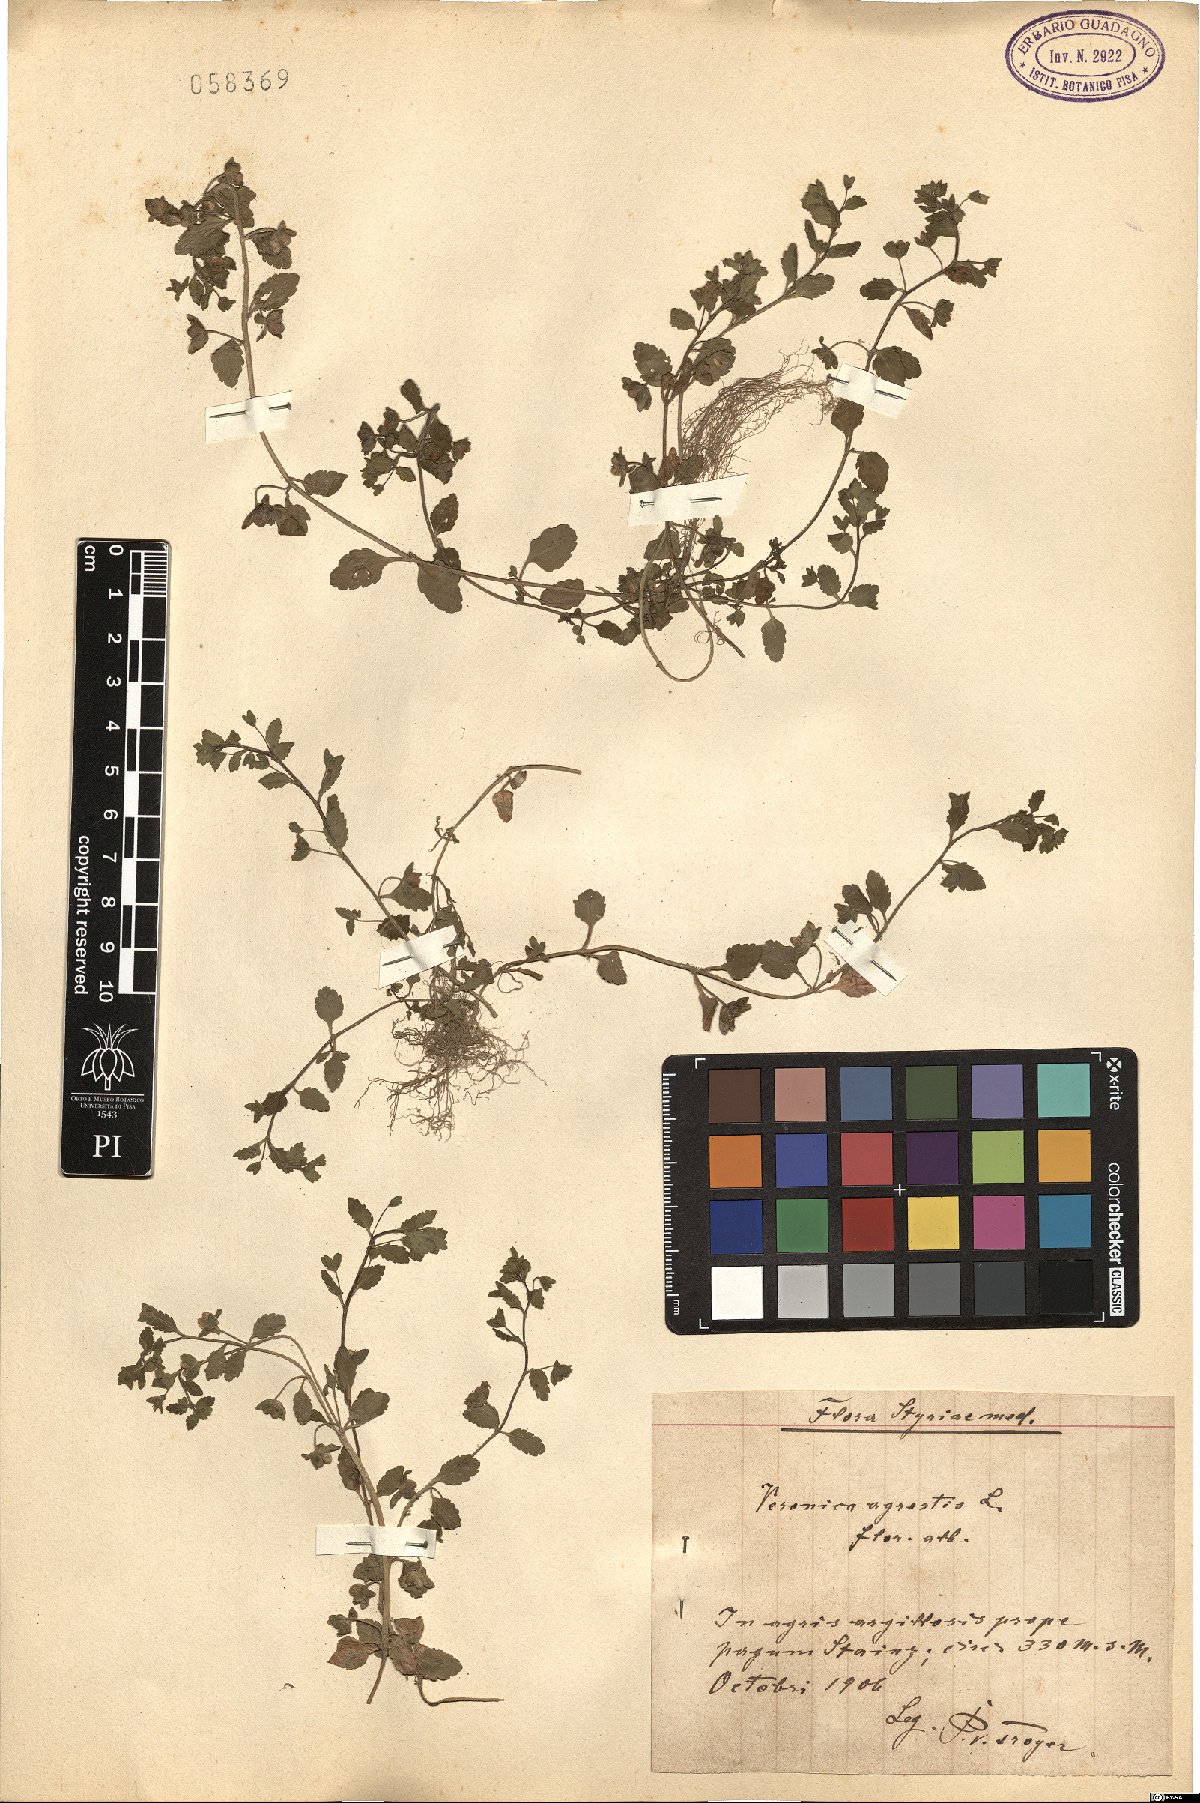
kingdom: Plantae
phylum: Tracheophyta
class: Magnoliopsida
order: Lamiales
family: Plantaginaceae
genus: Veronica
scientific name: Veronica agrestis
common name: Green field-speedwell
